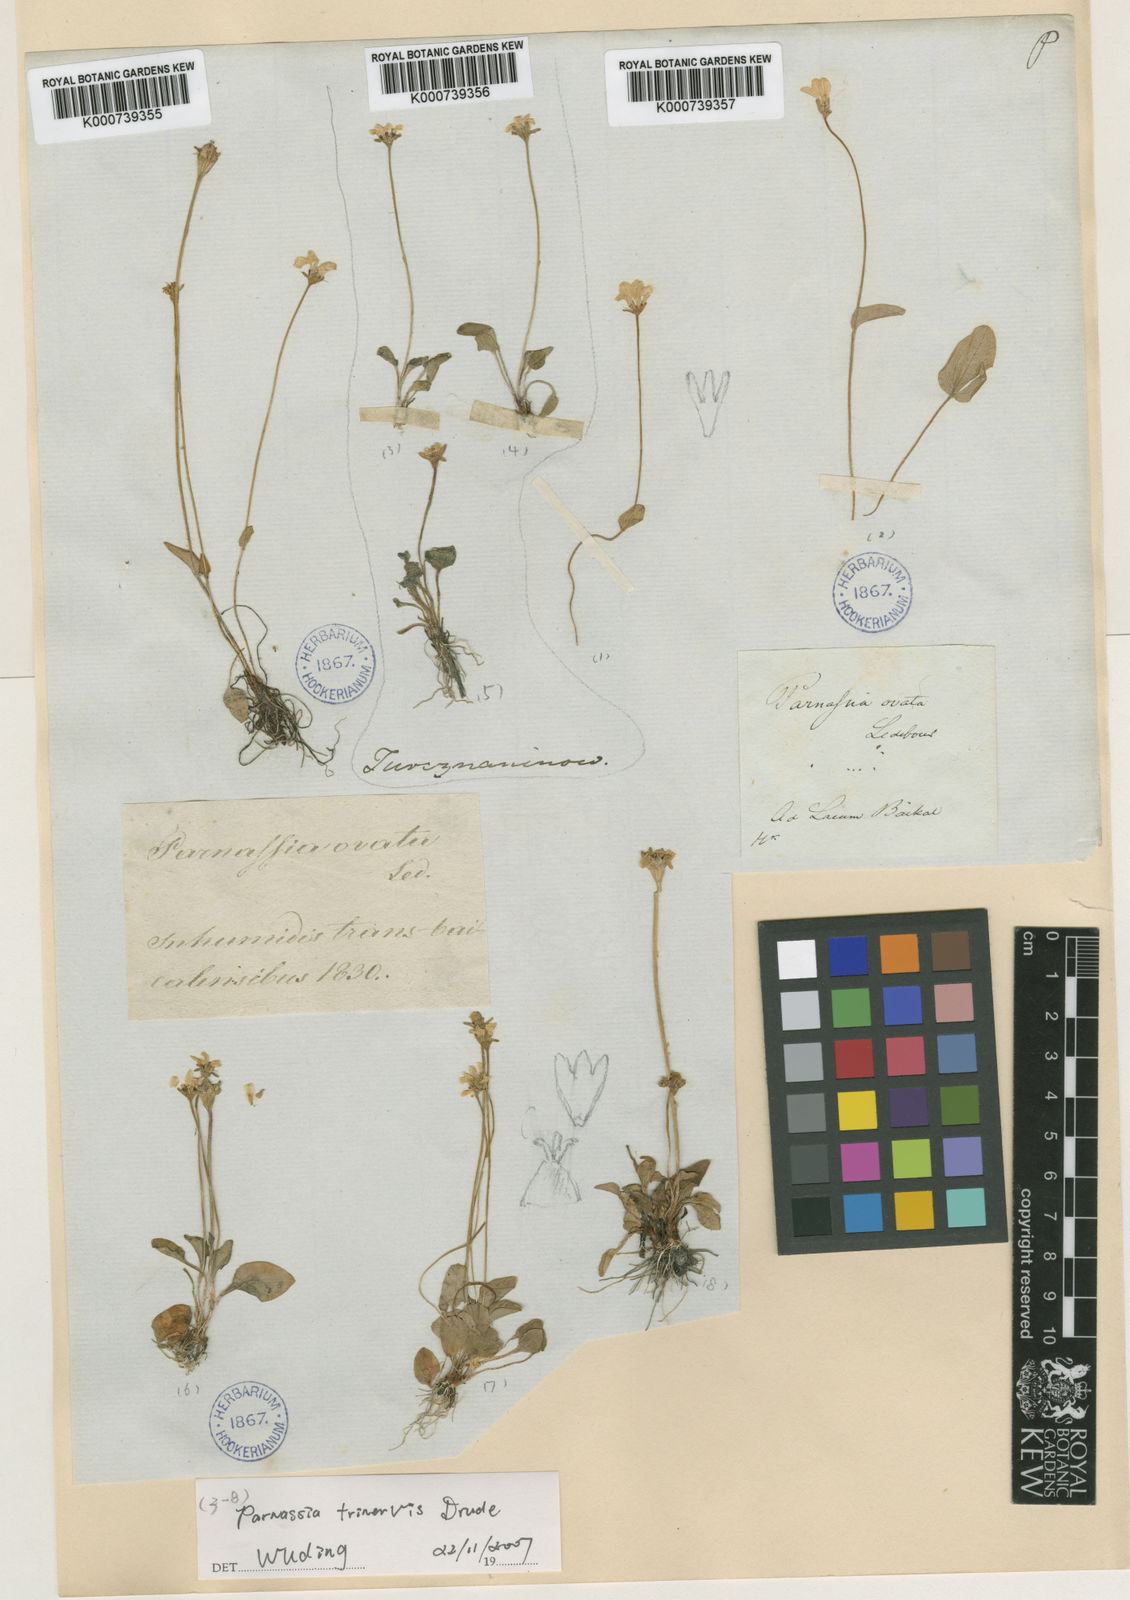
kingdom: Plantae
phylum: Tracheophyta
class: Magnoliopsida
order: Celastrales
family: Parnassiaceae
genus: Parnassia
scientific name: Parnassia trinervis
